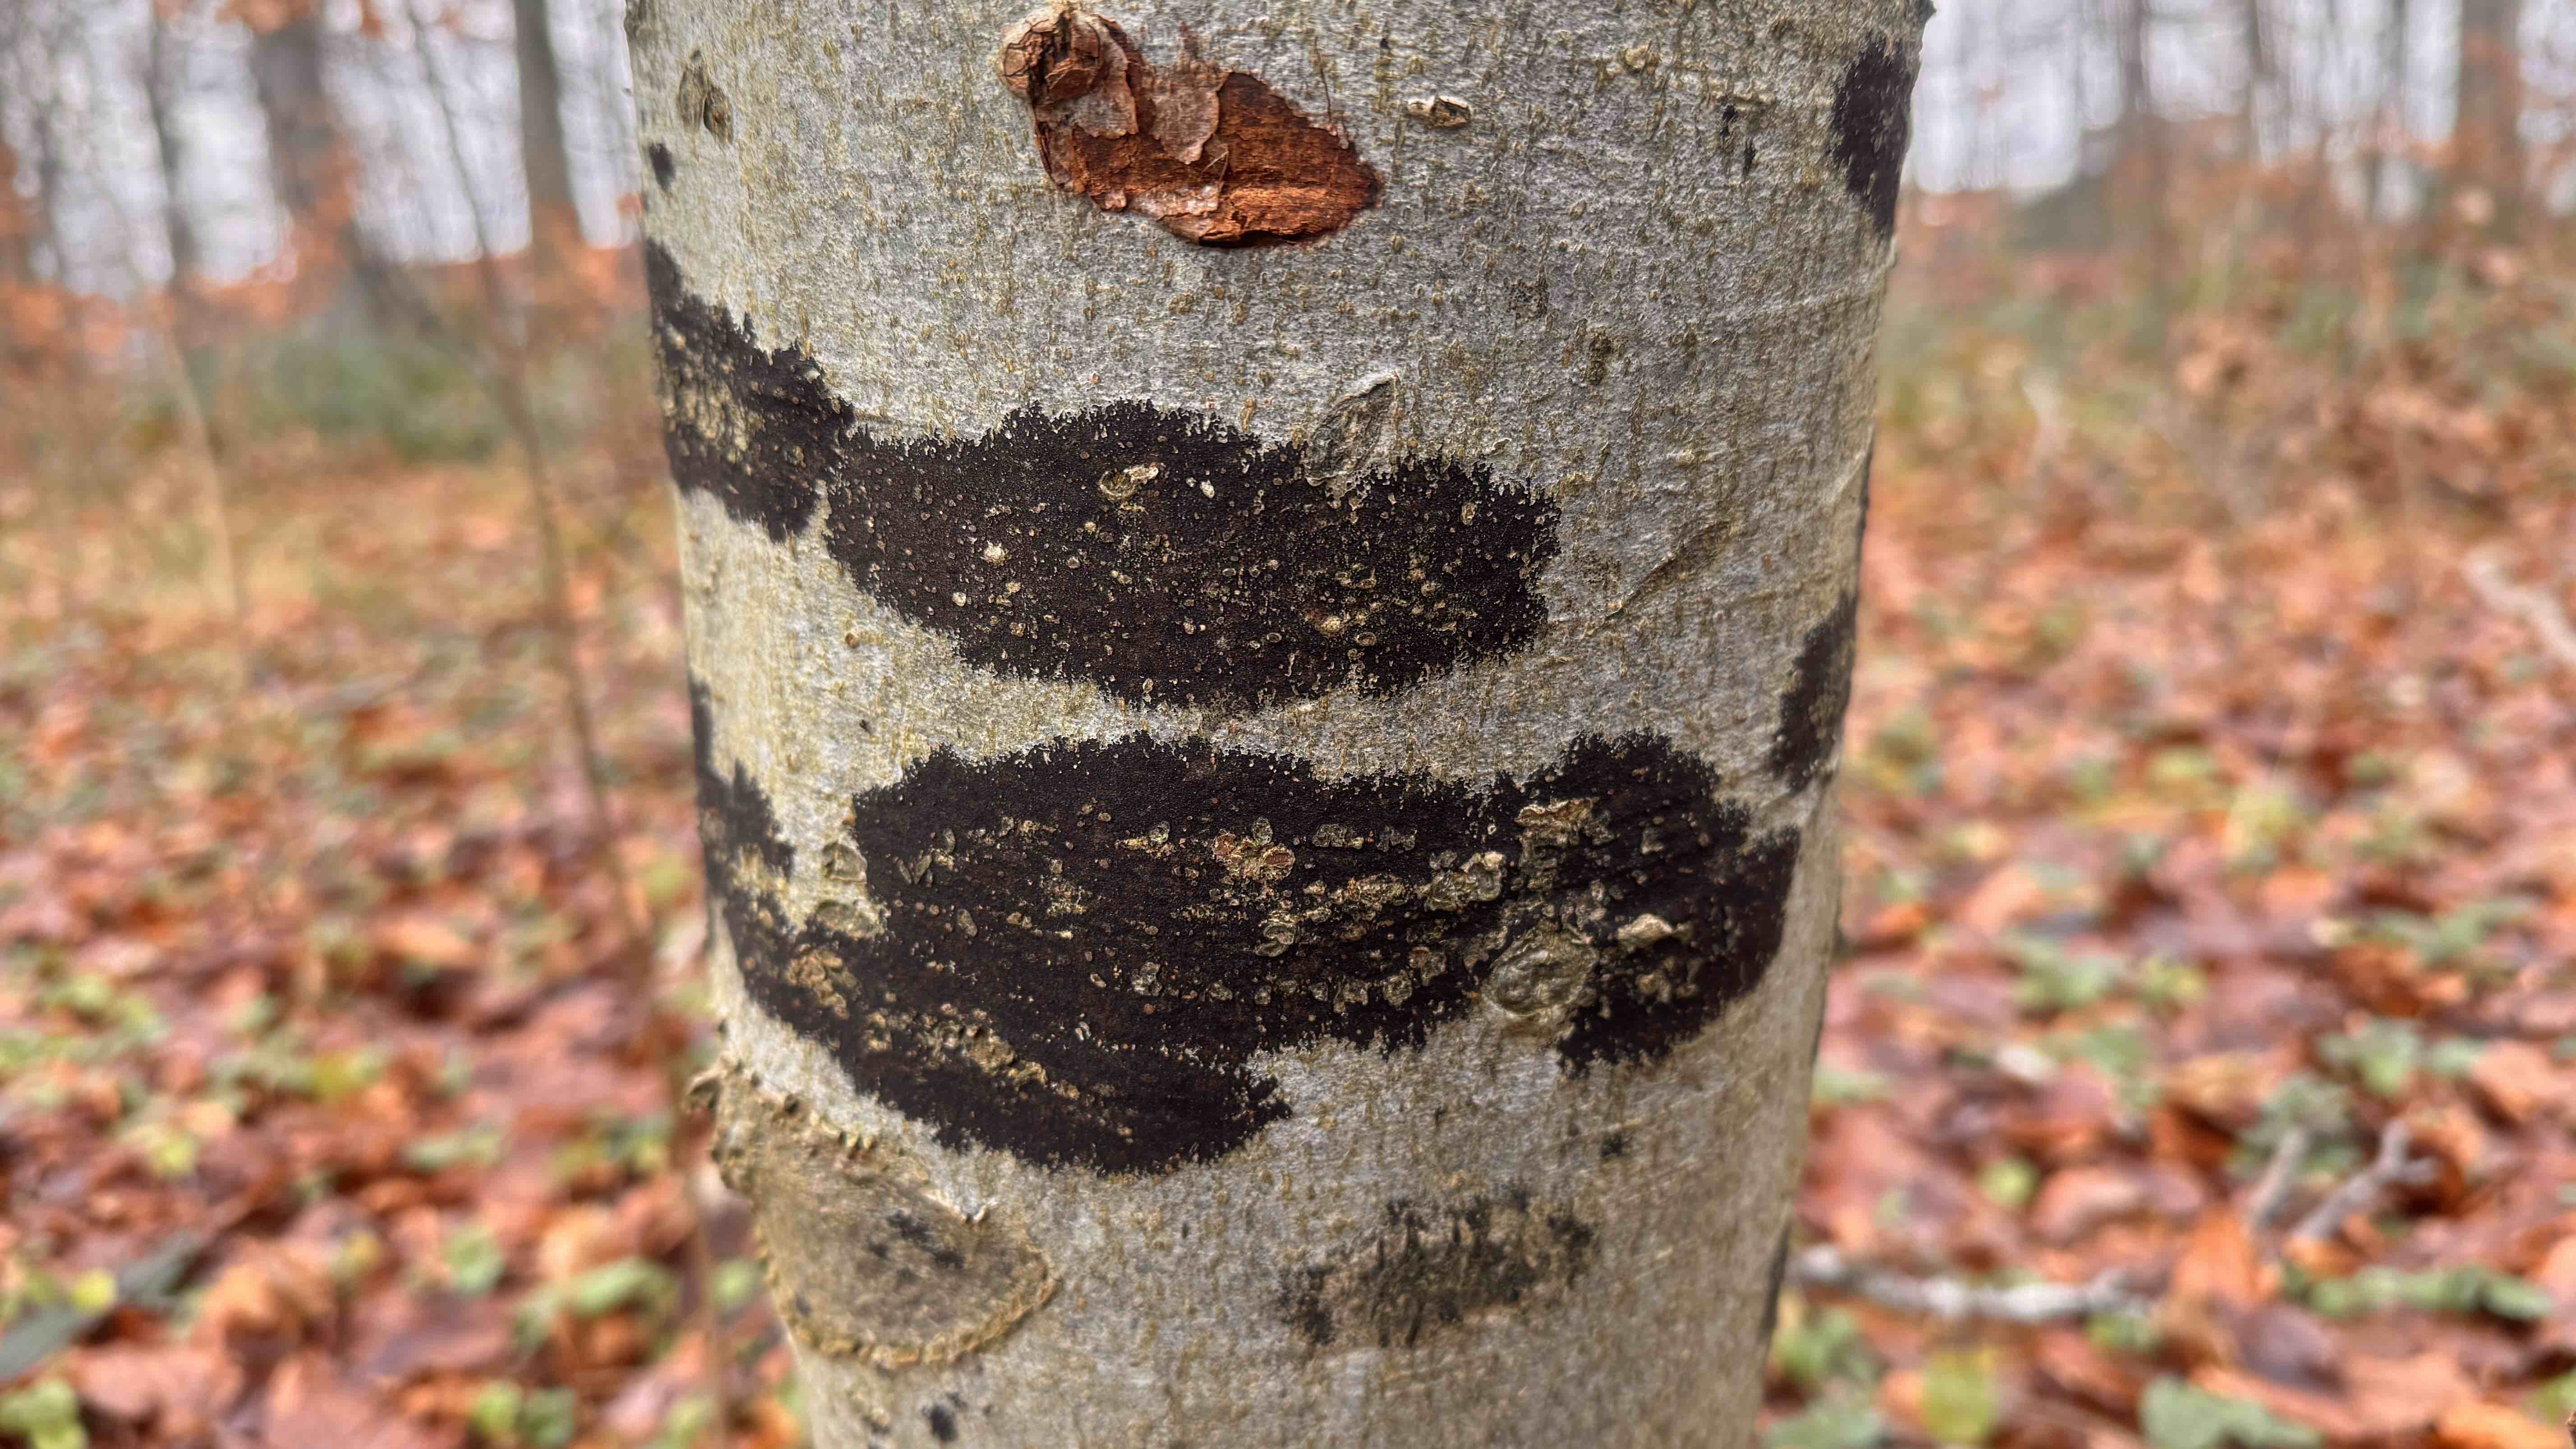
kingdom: Fungi
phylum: Ascomycota
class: Leotiomycetes
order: Rhytismatales
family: Ascodichaenaceae
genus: Ascodichaena
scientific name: Ascodichaena rugosa
